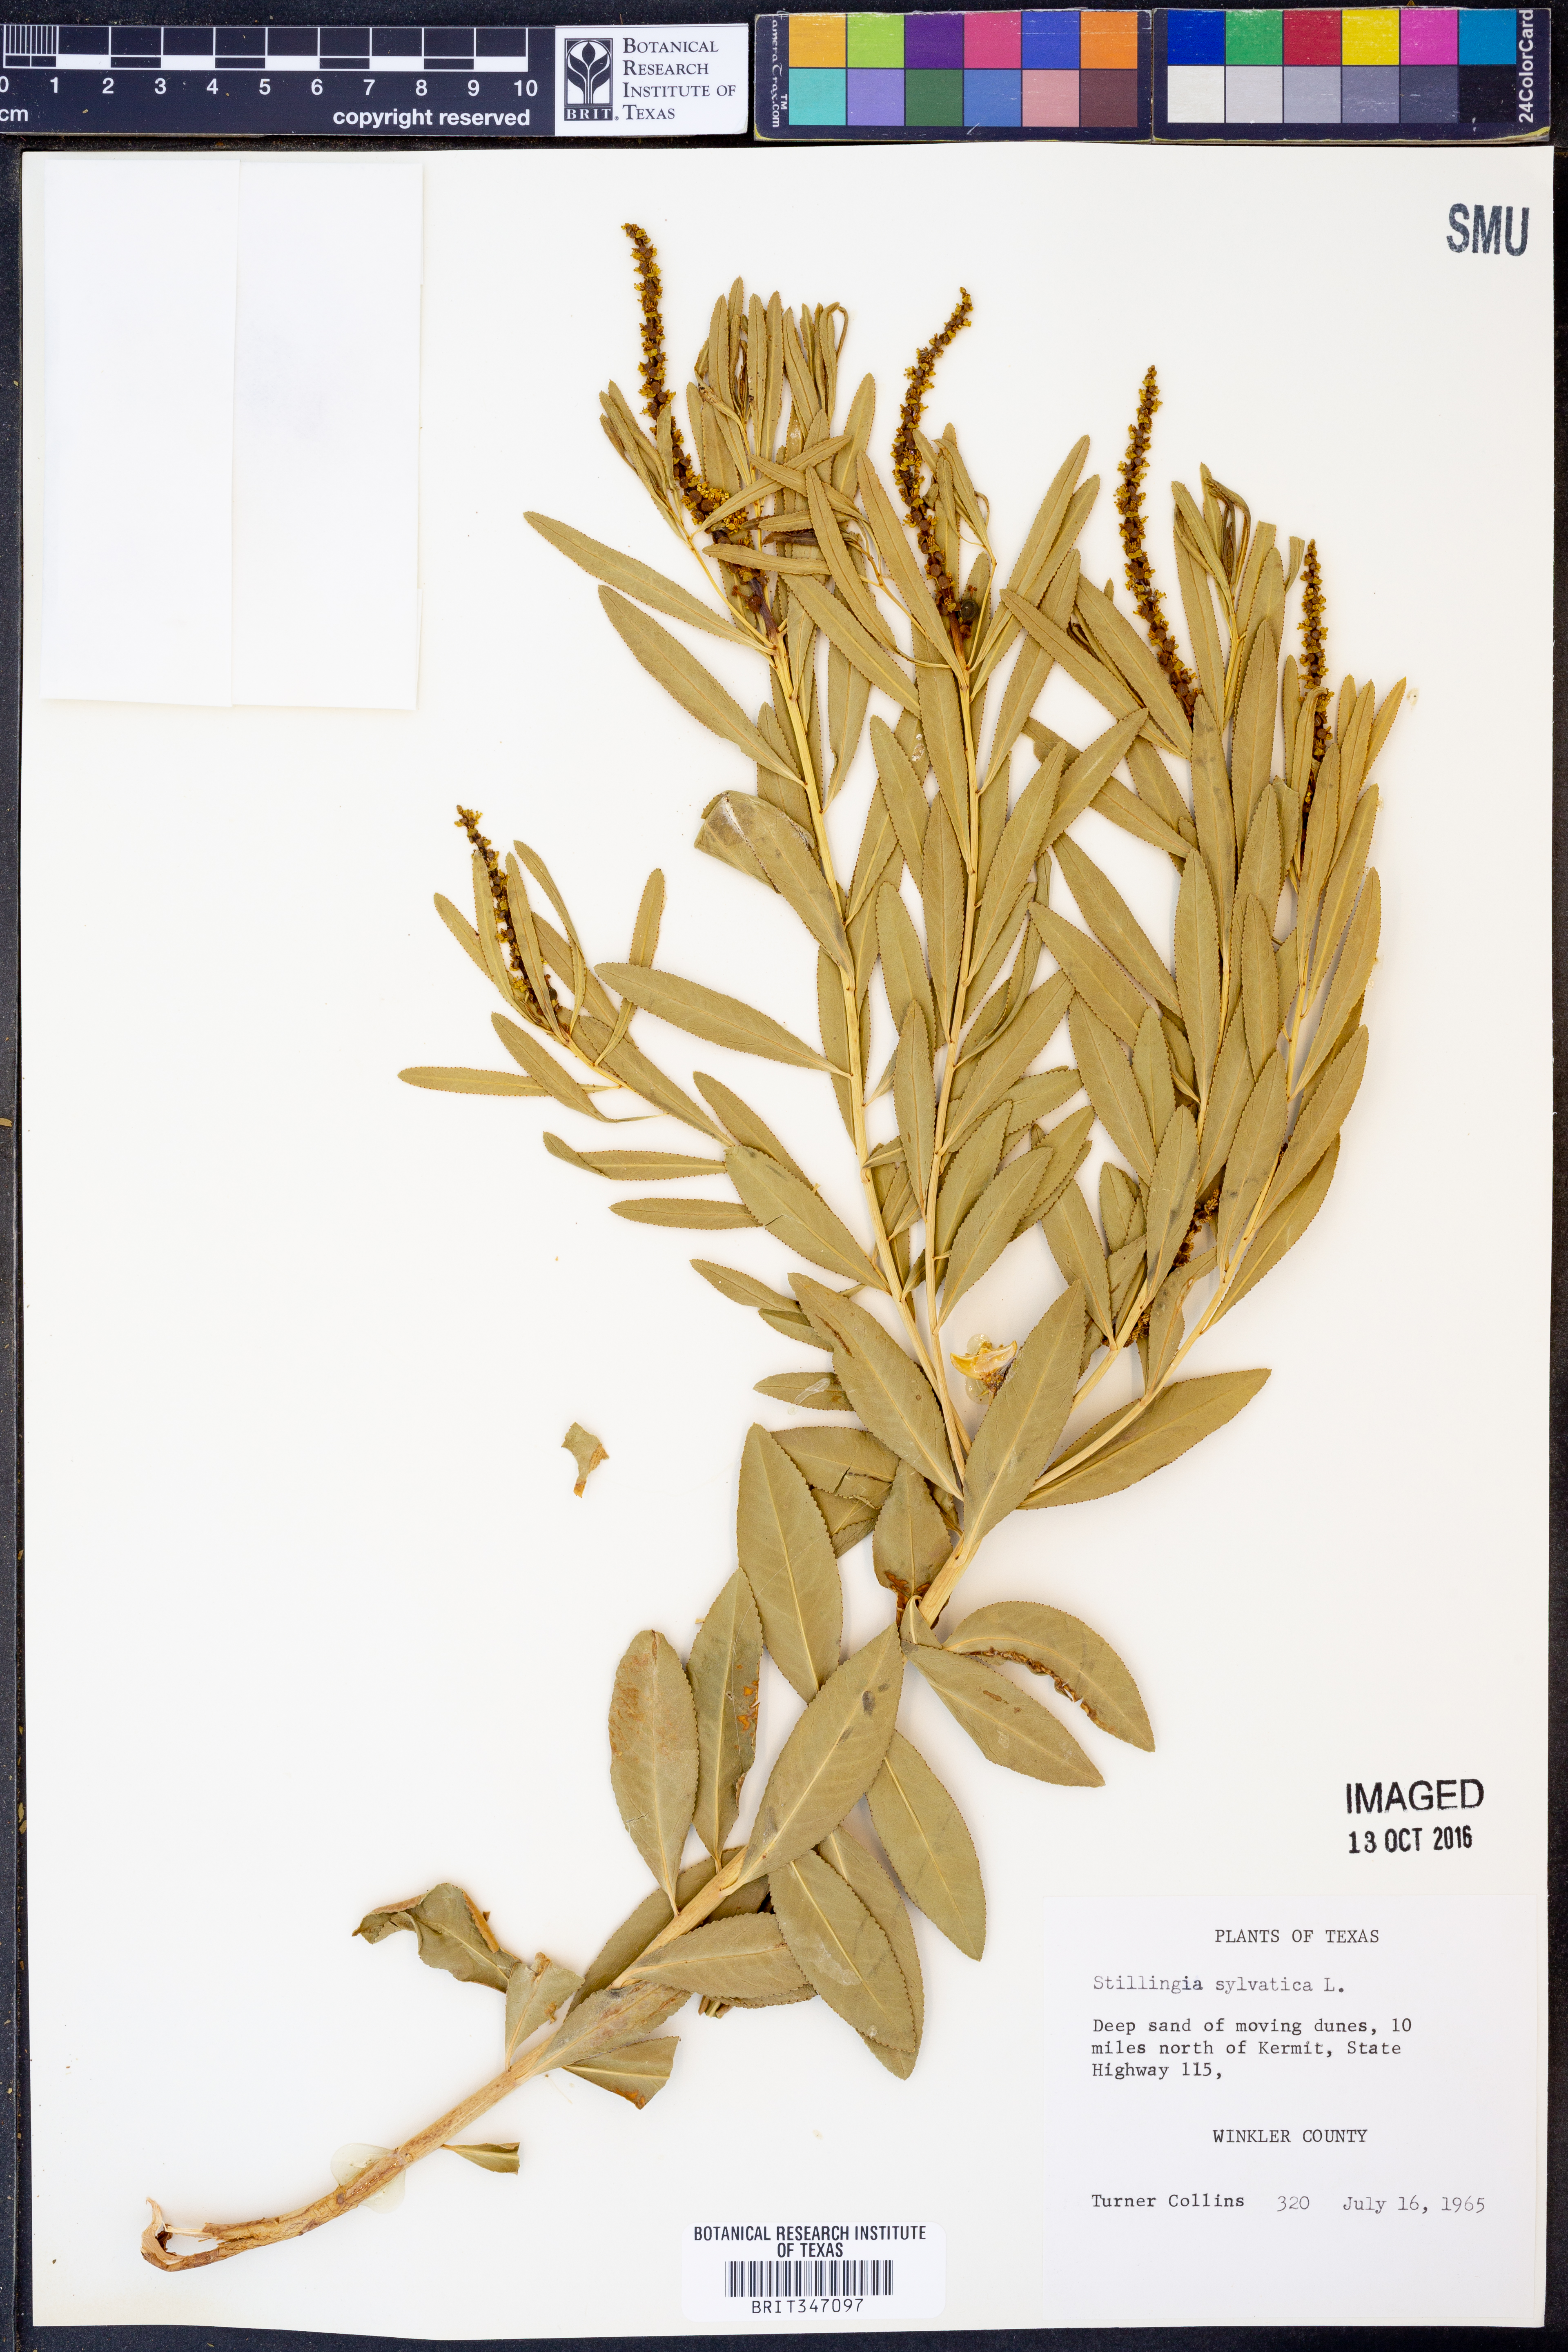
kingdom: Plantae
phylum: Tracheophyta
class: Magnoliopsida
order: Malpighiales
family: Euphorbiaceae
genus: Stillingia
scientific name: Stillingia sylvatica
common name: Queen's-delight
